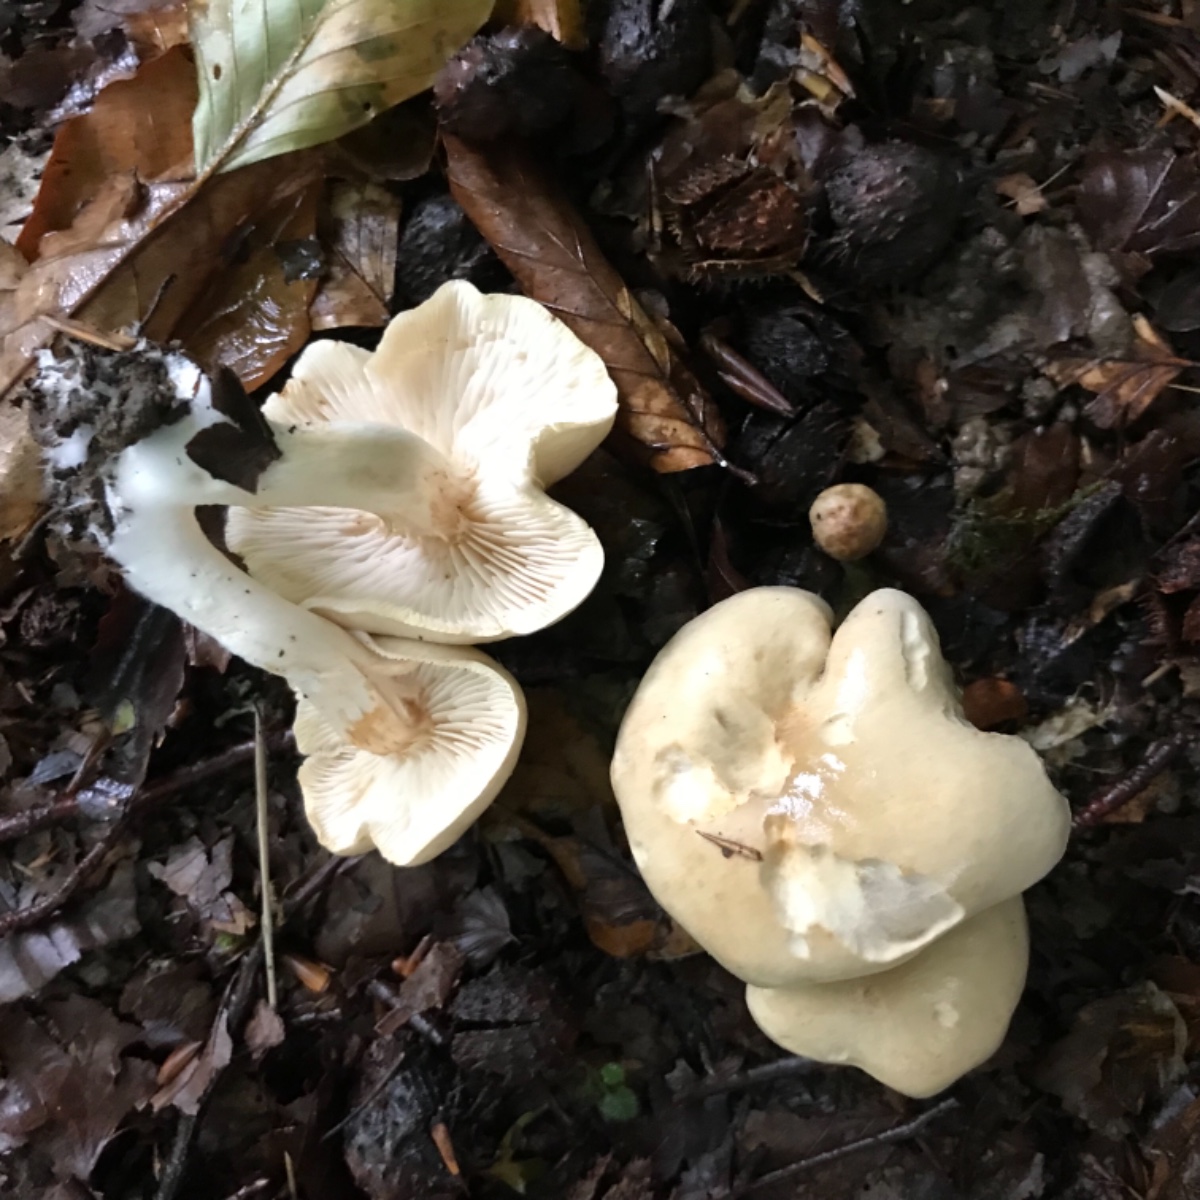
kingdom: Fungi
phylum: Basidiomycota
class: Agaricomycetes
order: Agaricales
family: Tricholomataceae
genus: Tricholoma
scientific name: Tricholoma lascivum
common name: stinkende ridderhat
